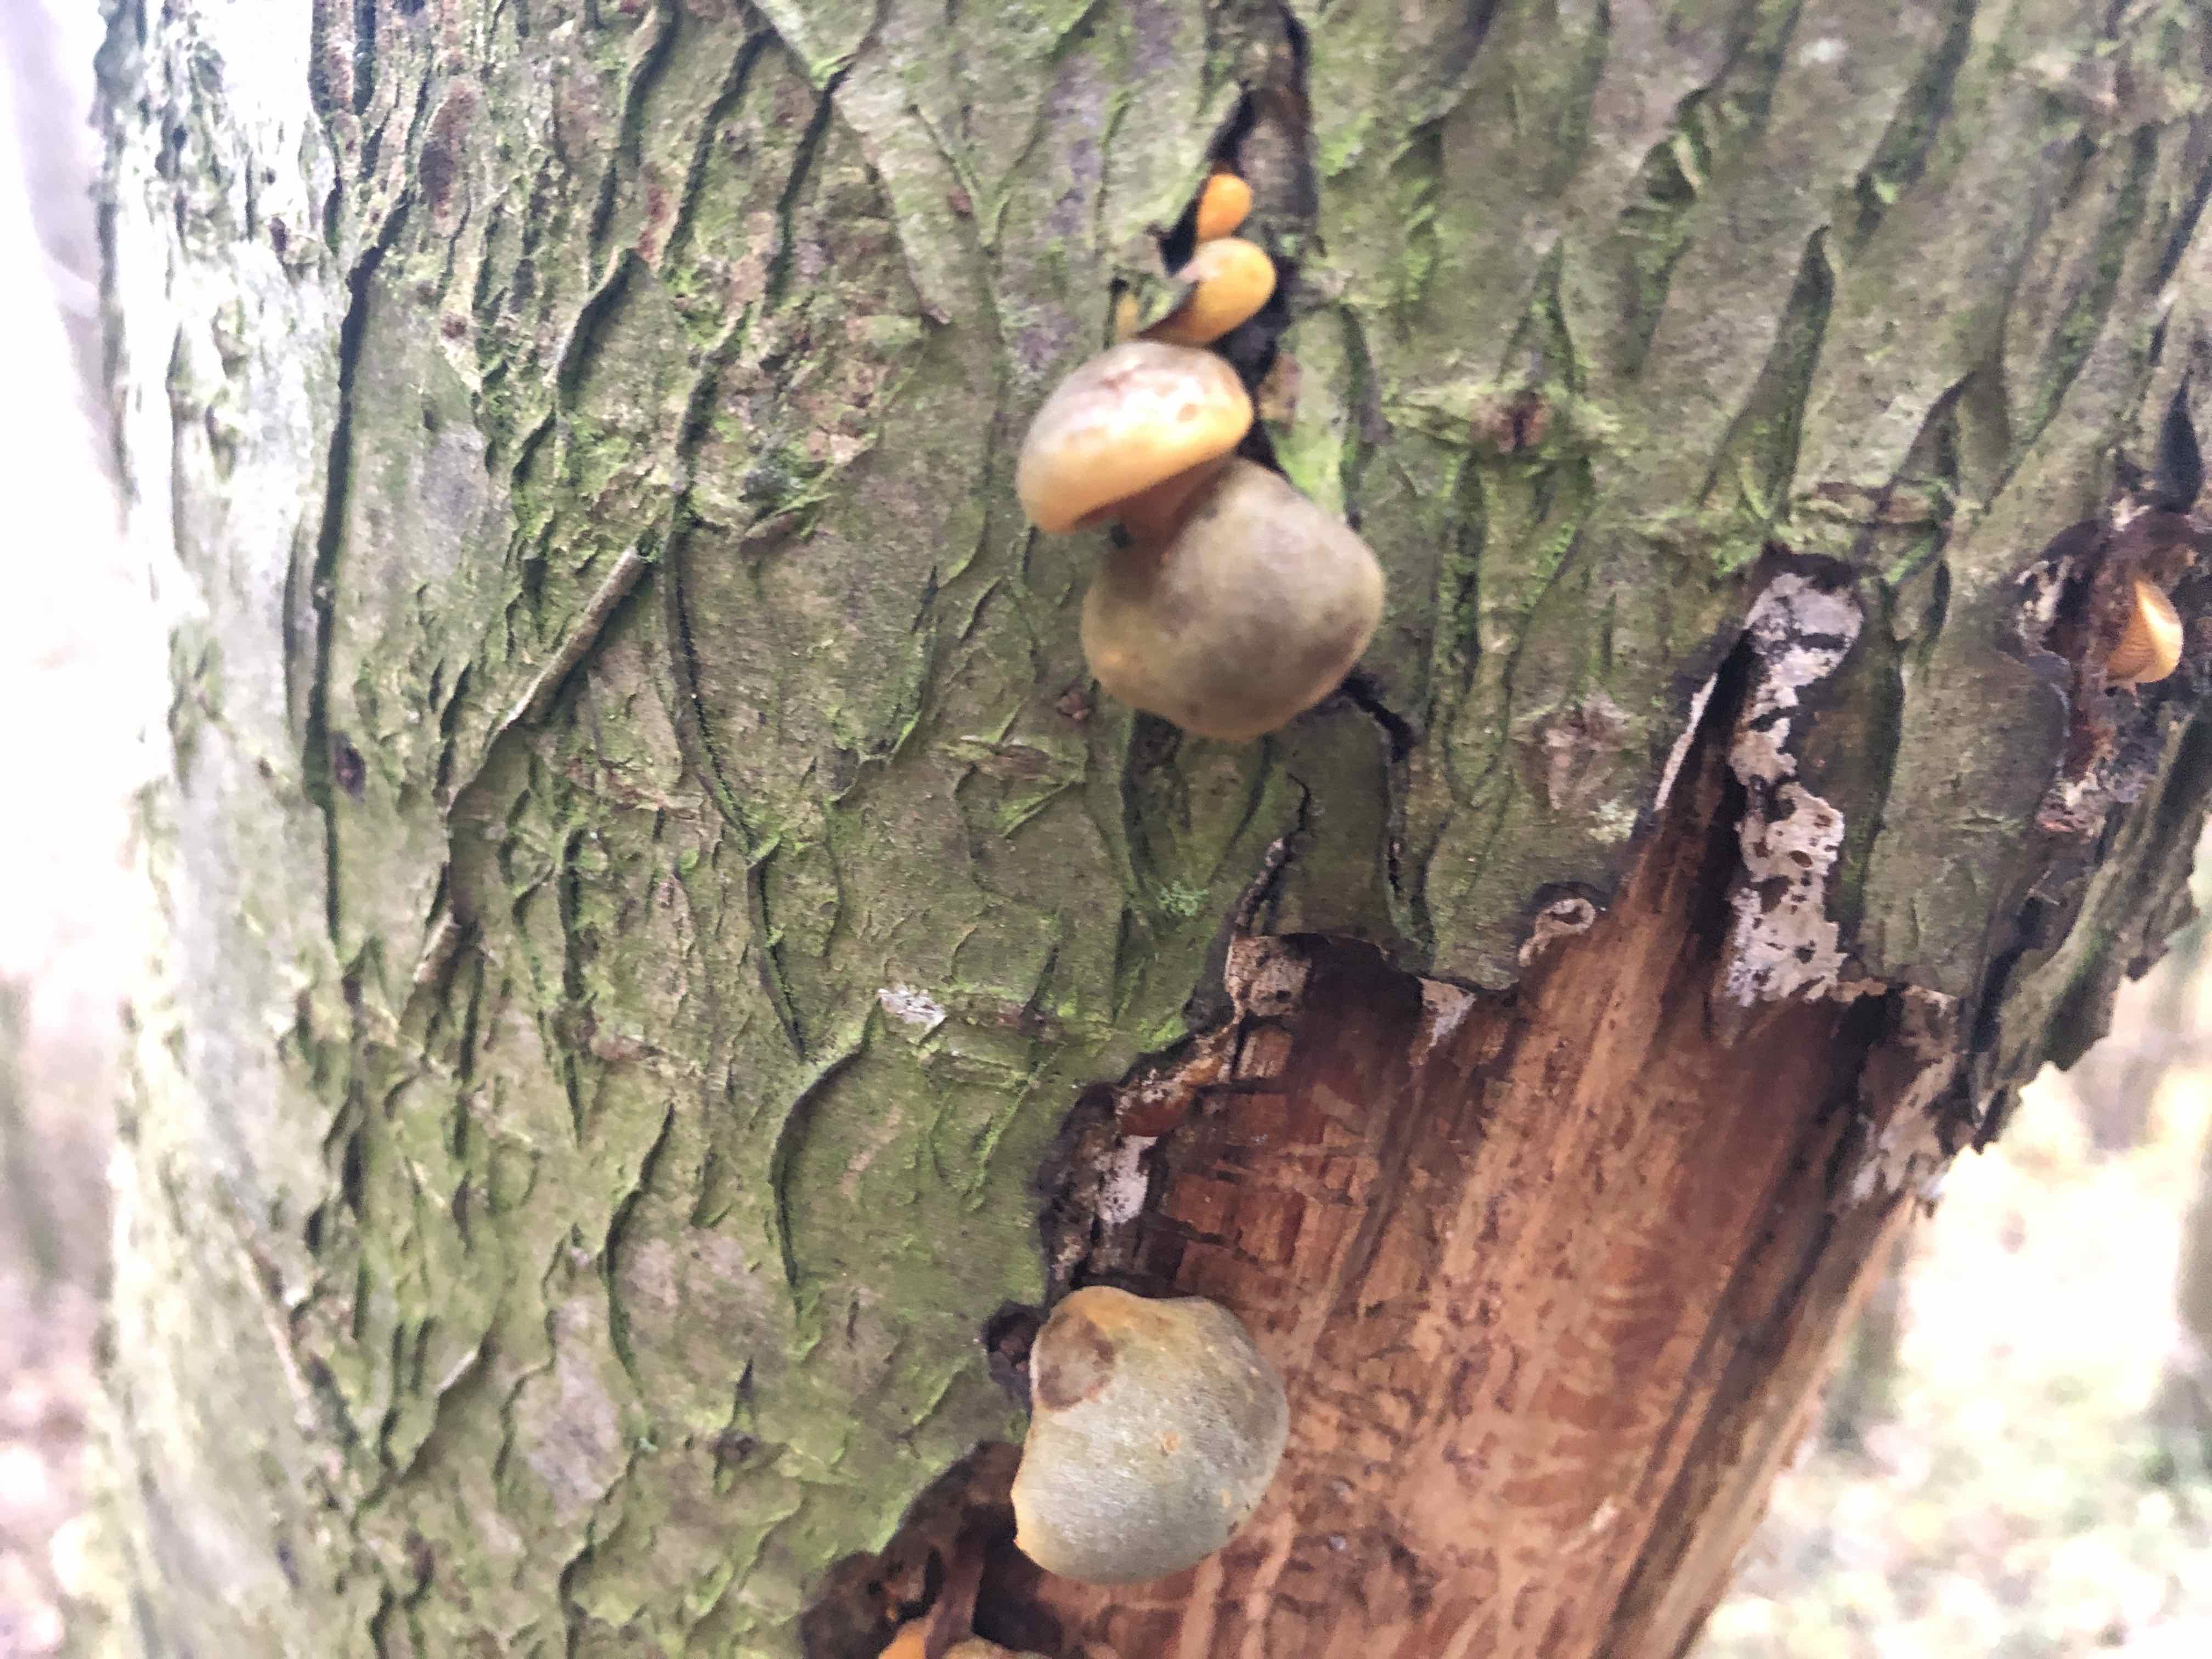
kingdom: Fungi
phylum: Basidiomycota
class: Agaricomycetes
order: Agaricales
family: Sarcomyxaceae
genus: Sarcomyxa
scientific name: Sarcomyxa serotina
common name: gummihat
